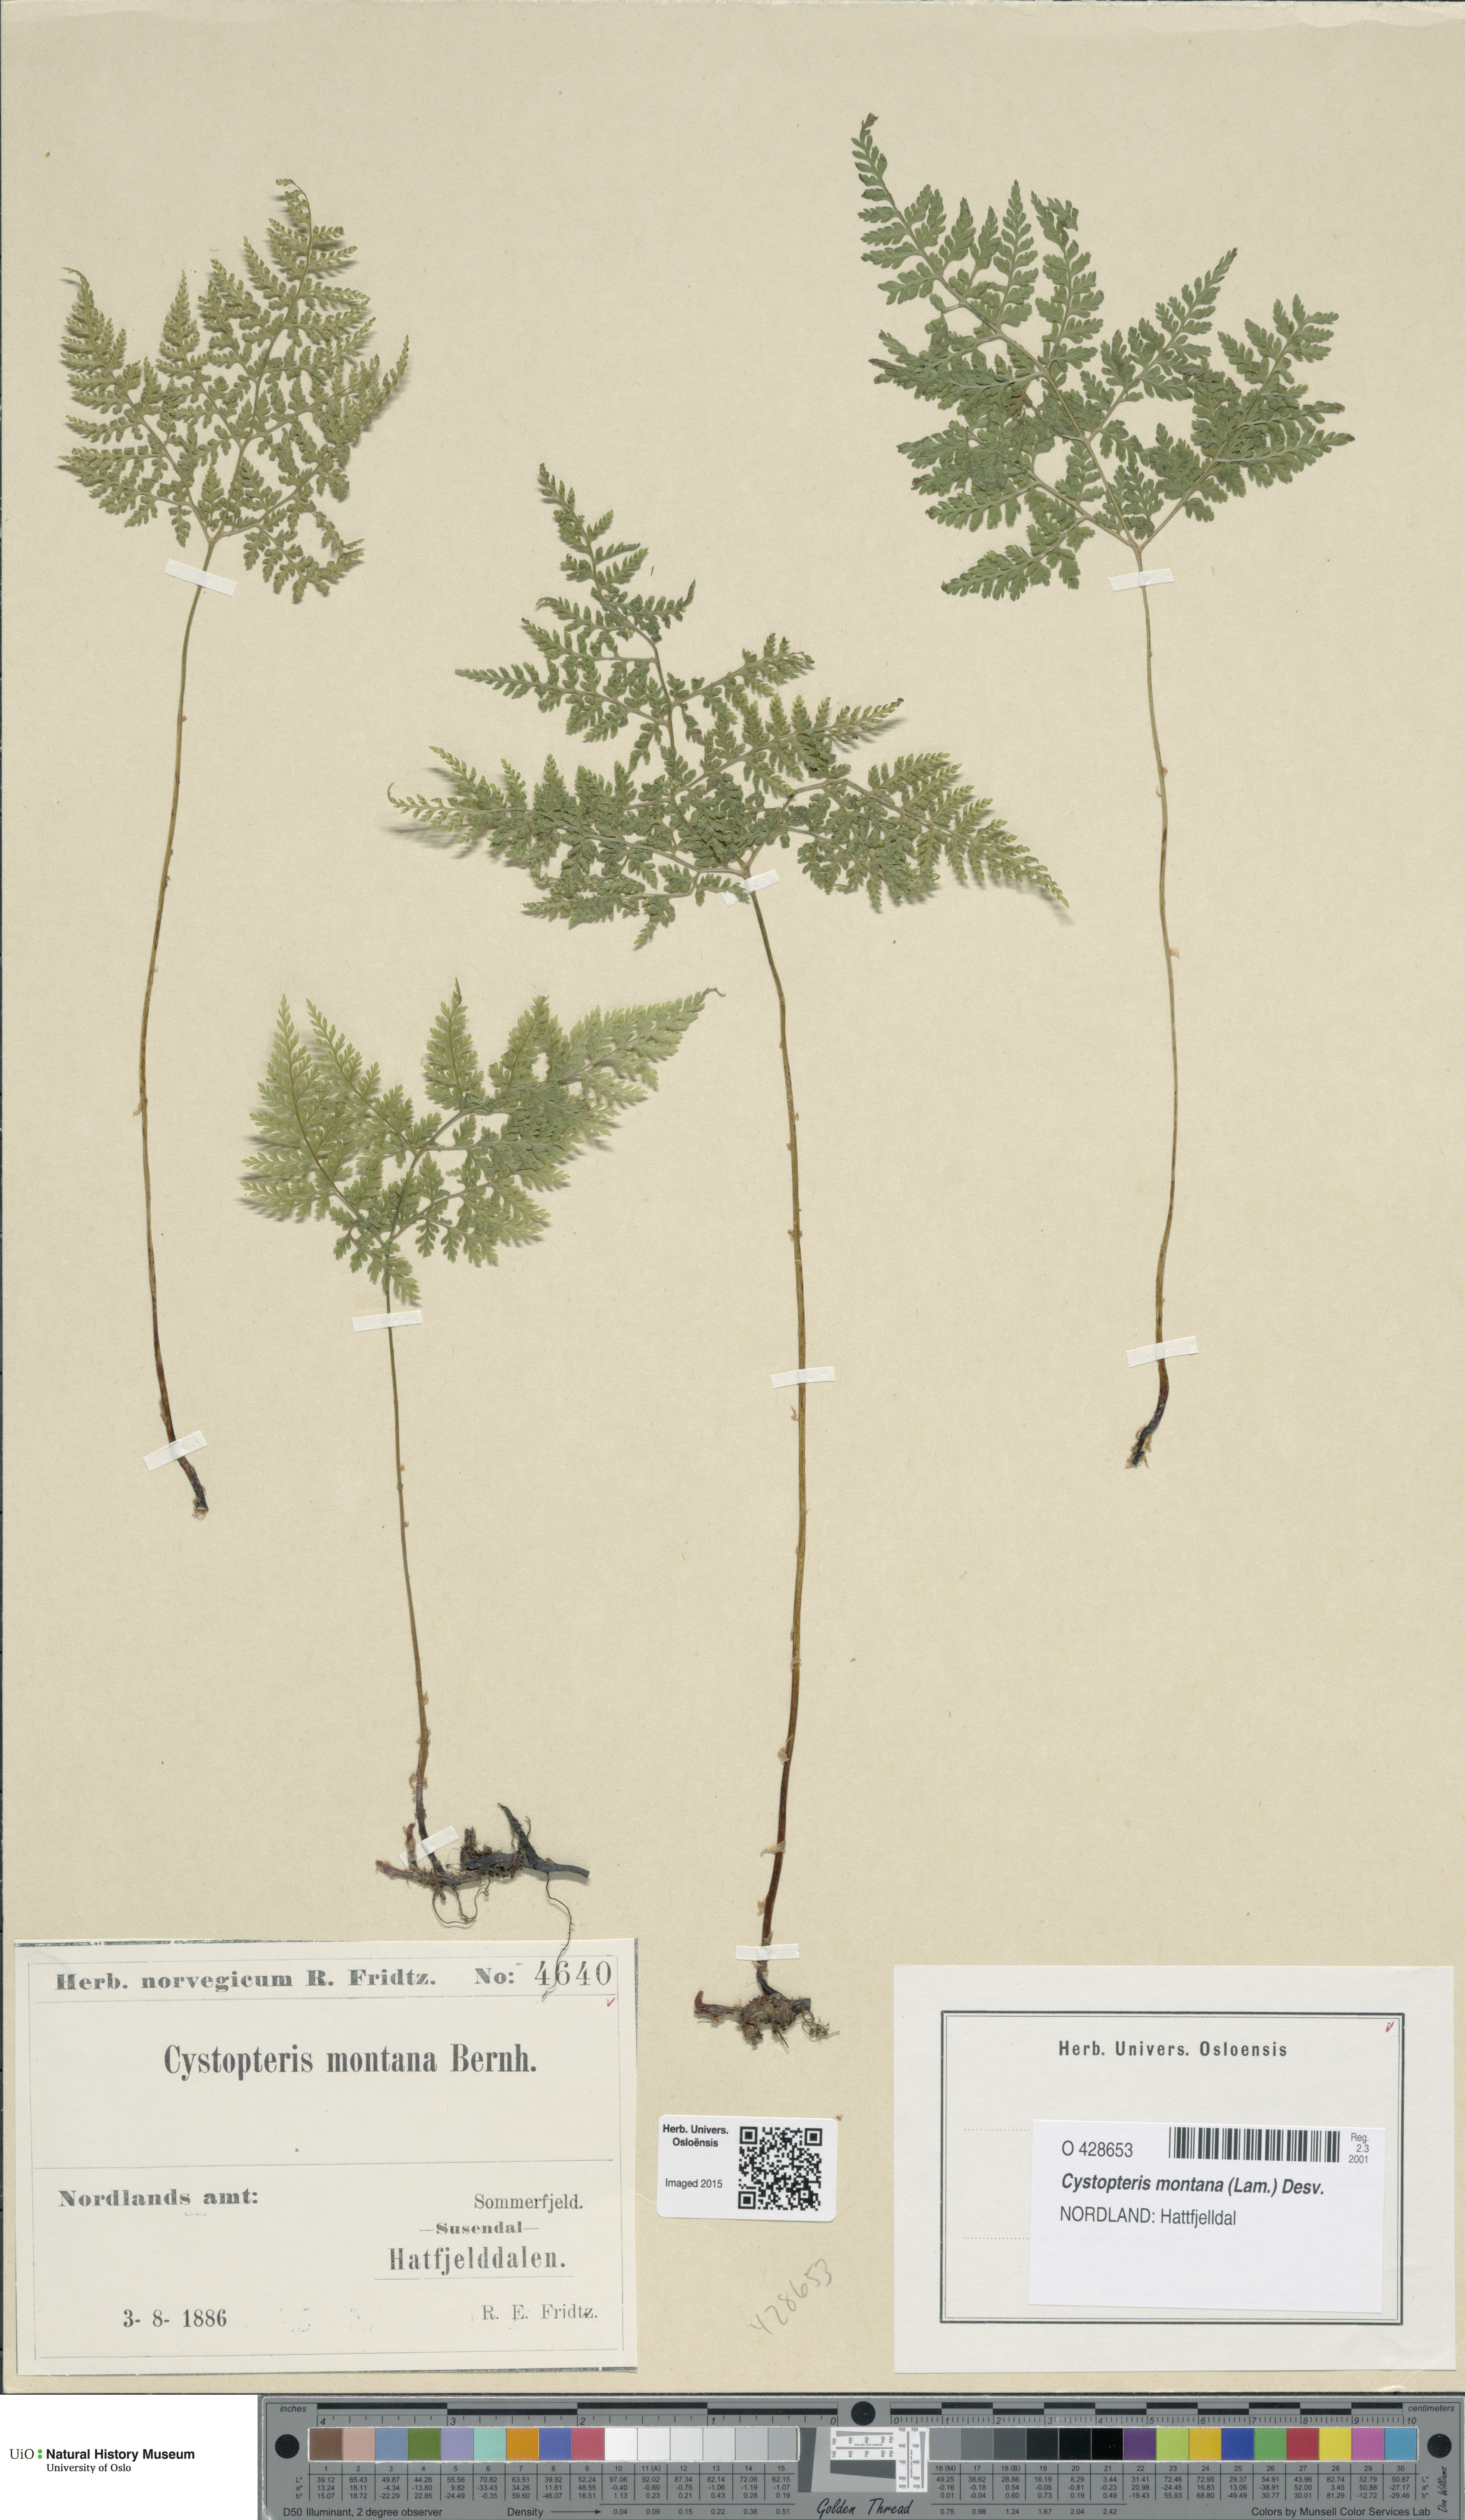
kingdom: Plantae
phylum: Tracheophyta
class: Polypodiopsida
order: Polypodiales
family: Cystopteridaceae
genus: Cystopteris
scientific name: Cystopteris montana
